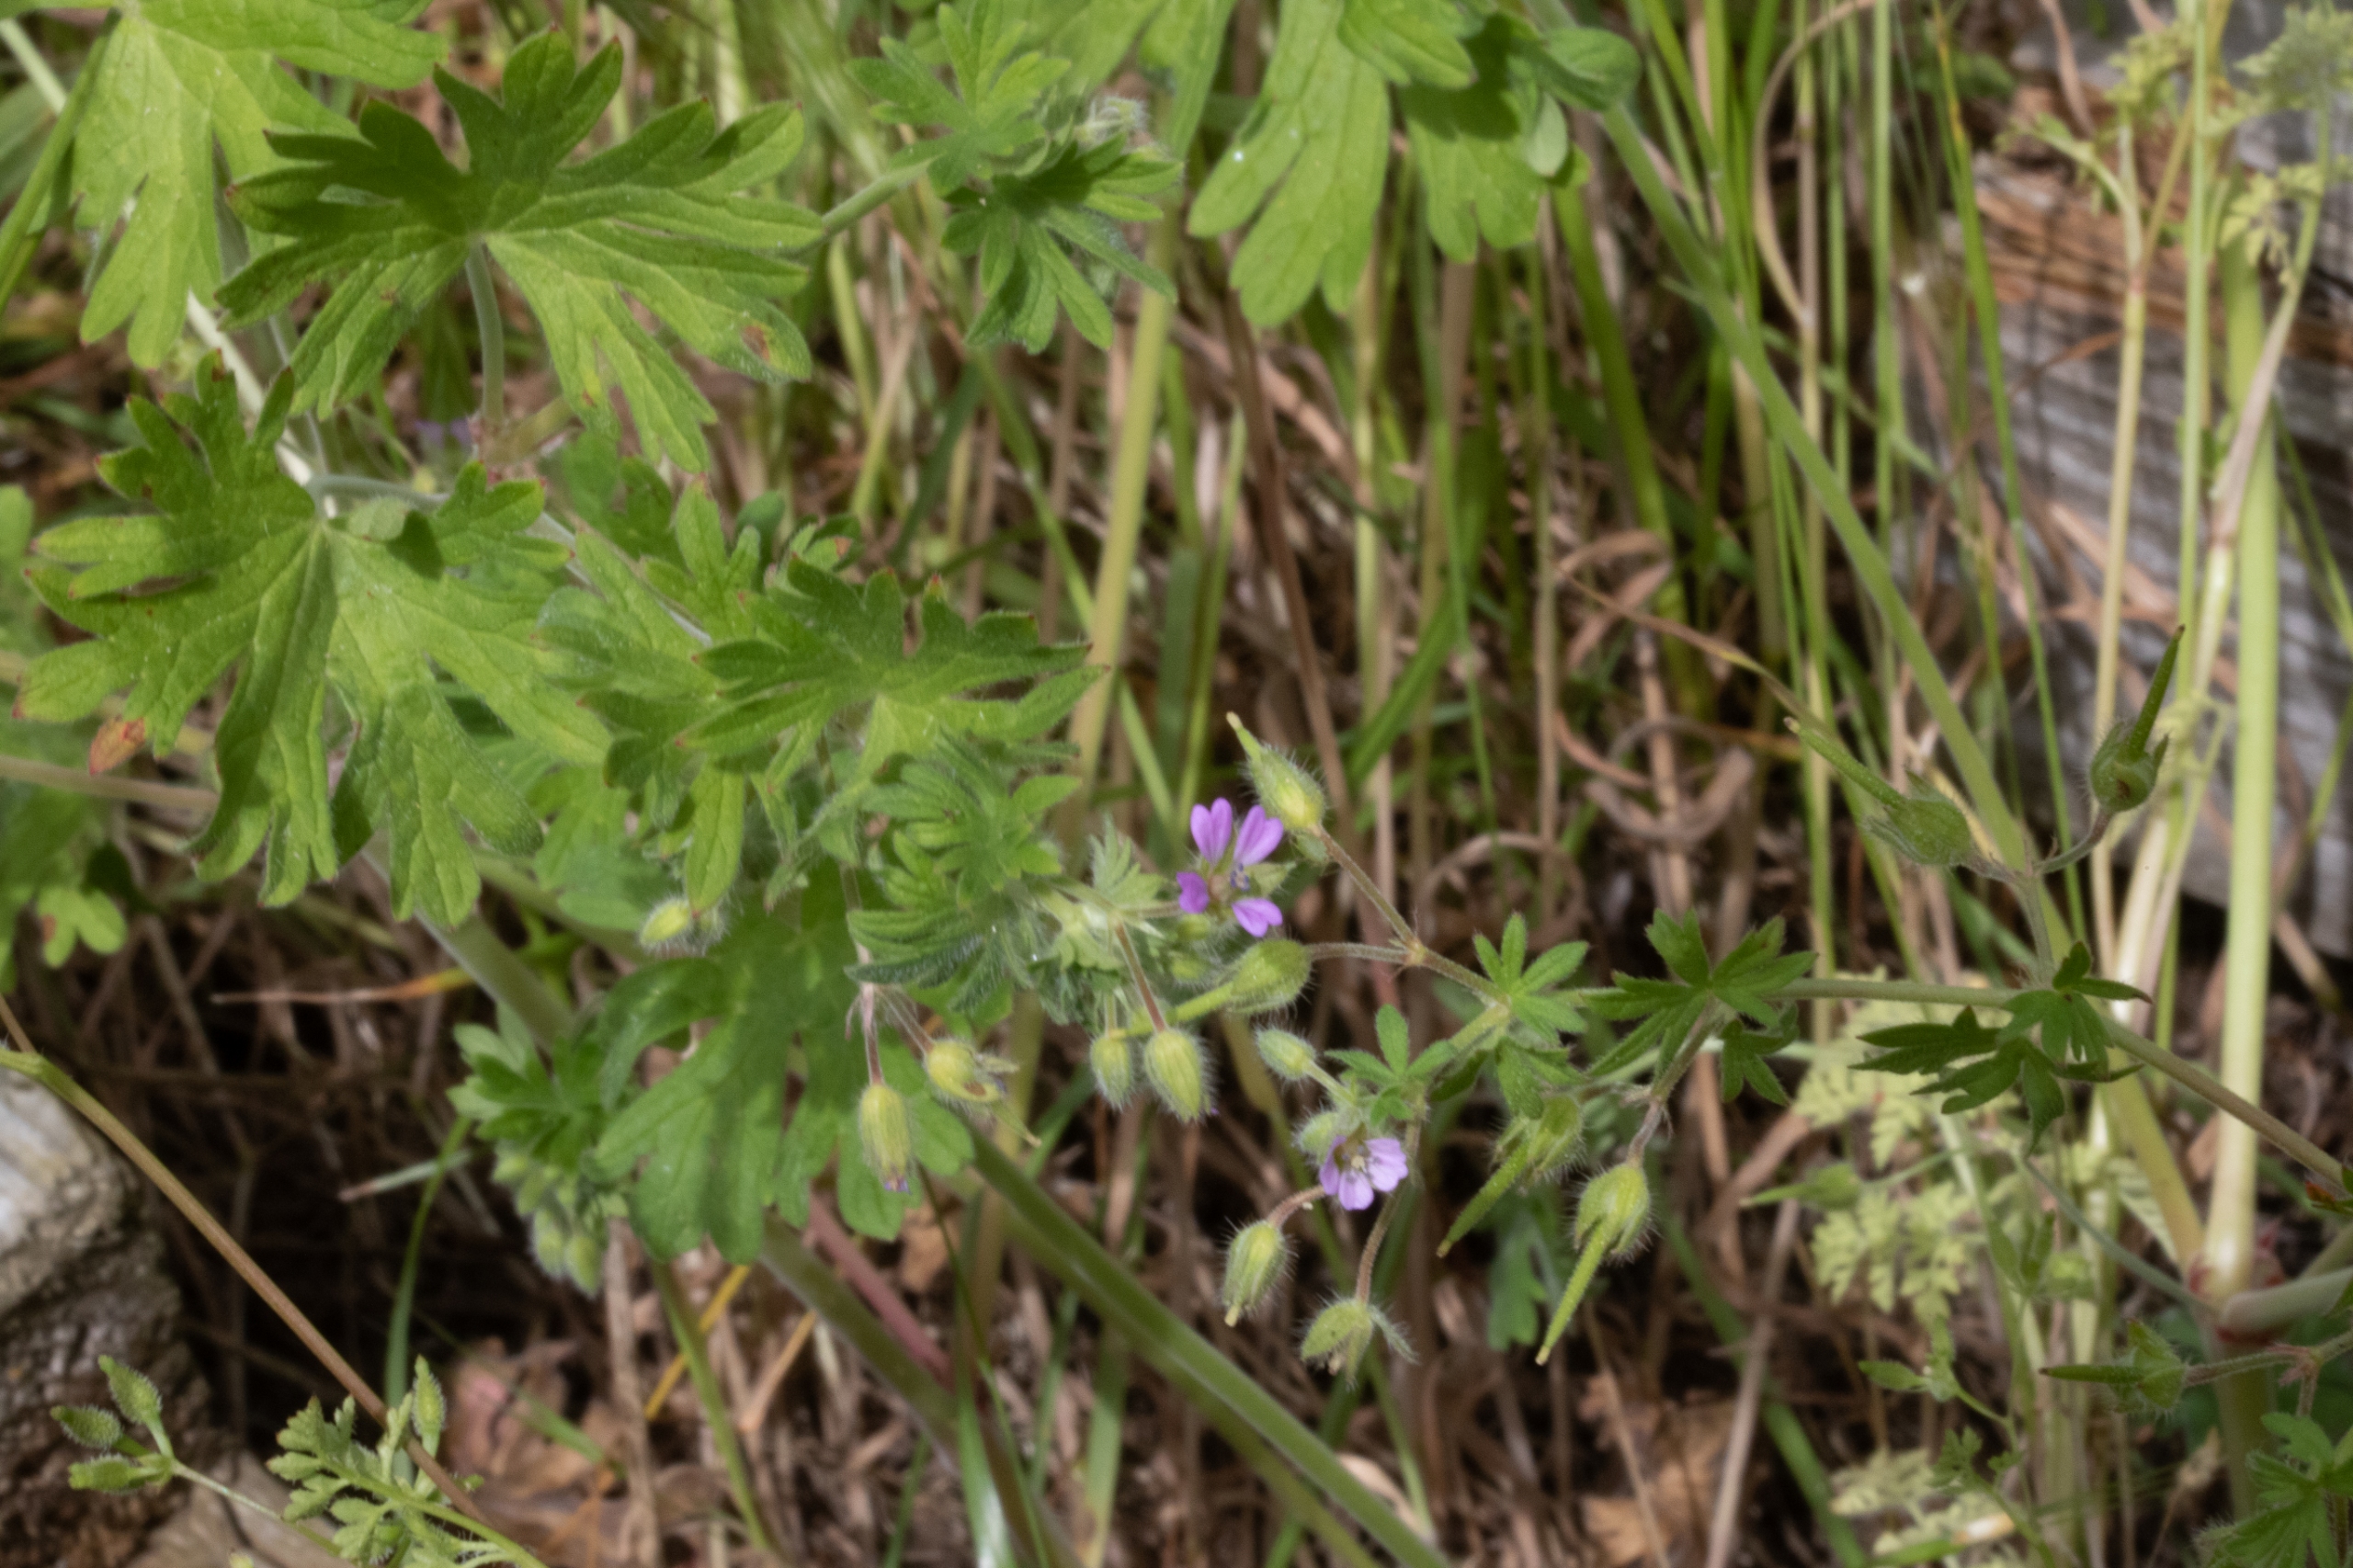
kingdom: Plantae
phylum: Tracheophyta
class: Magnoliopsida
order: Geraniales
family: Geraniaceae
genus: Geranium
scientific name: Geranium pusillum
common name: Liden storkenæb
